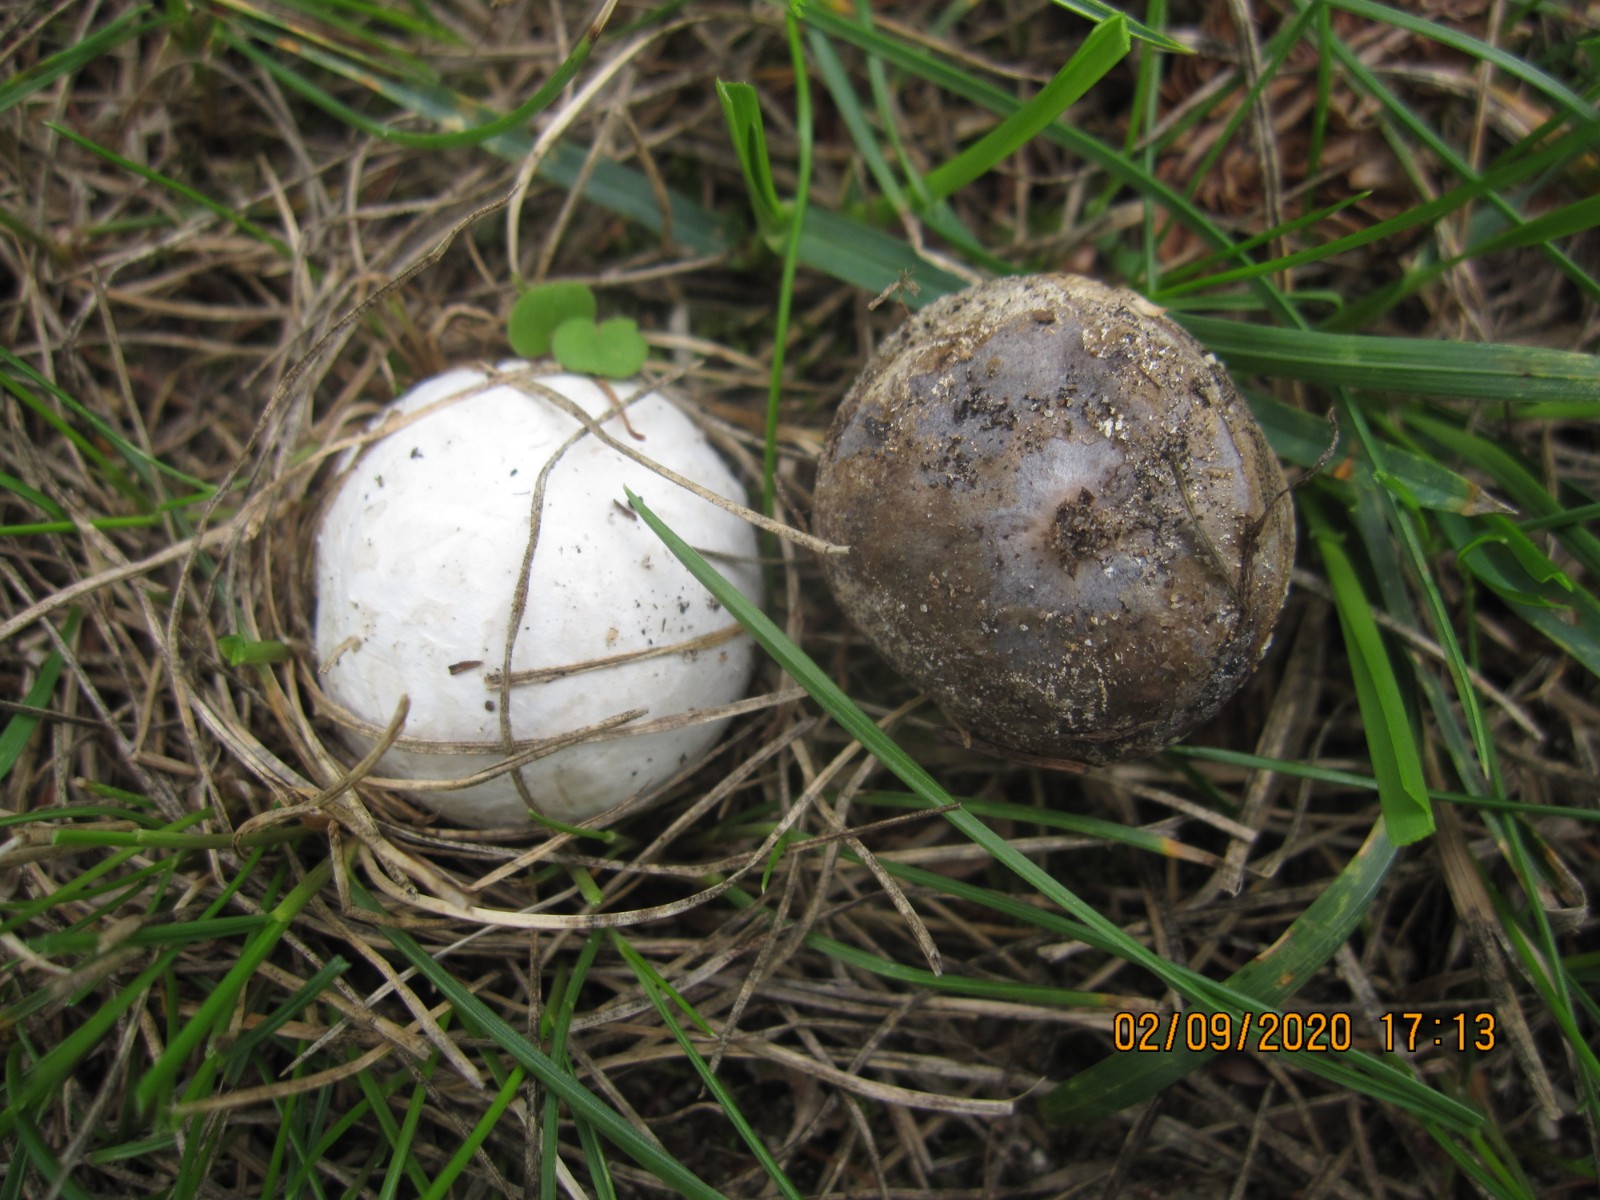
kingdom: Fungi
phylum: Basidiomycota
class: Agaricomycetes
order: Agaricales
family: Lycoperdaceae
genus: Bovista
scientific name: Bovista plumbea
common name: blygrå bovist
